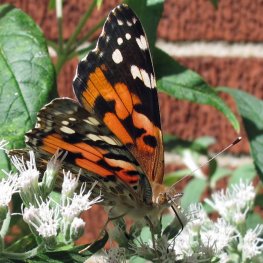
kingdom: Animalia
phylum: Arthropoda
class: Insecta
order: Lepidoptera
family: Nymphalidae
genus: Vanessa
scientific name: Vanessa cardui
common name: Painted Lady
